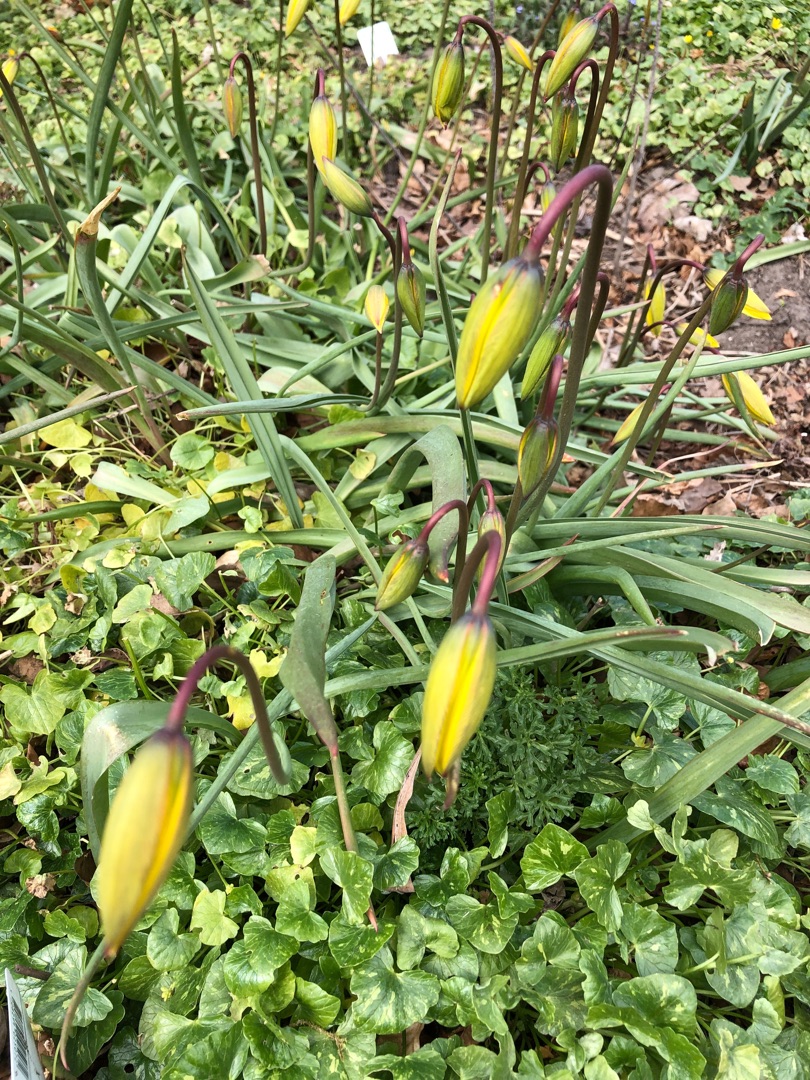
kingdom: Plantae
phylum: Tracheophyta
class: Liliopsida
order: Liliales
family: Liliaceae
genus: Tulipa
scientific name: Tulipa sylvestris
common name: Vild tulipan
